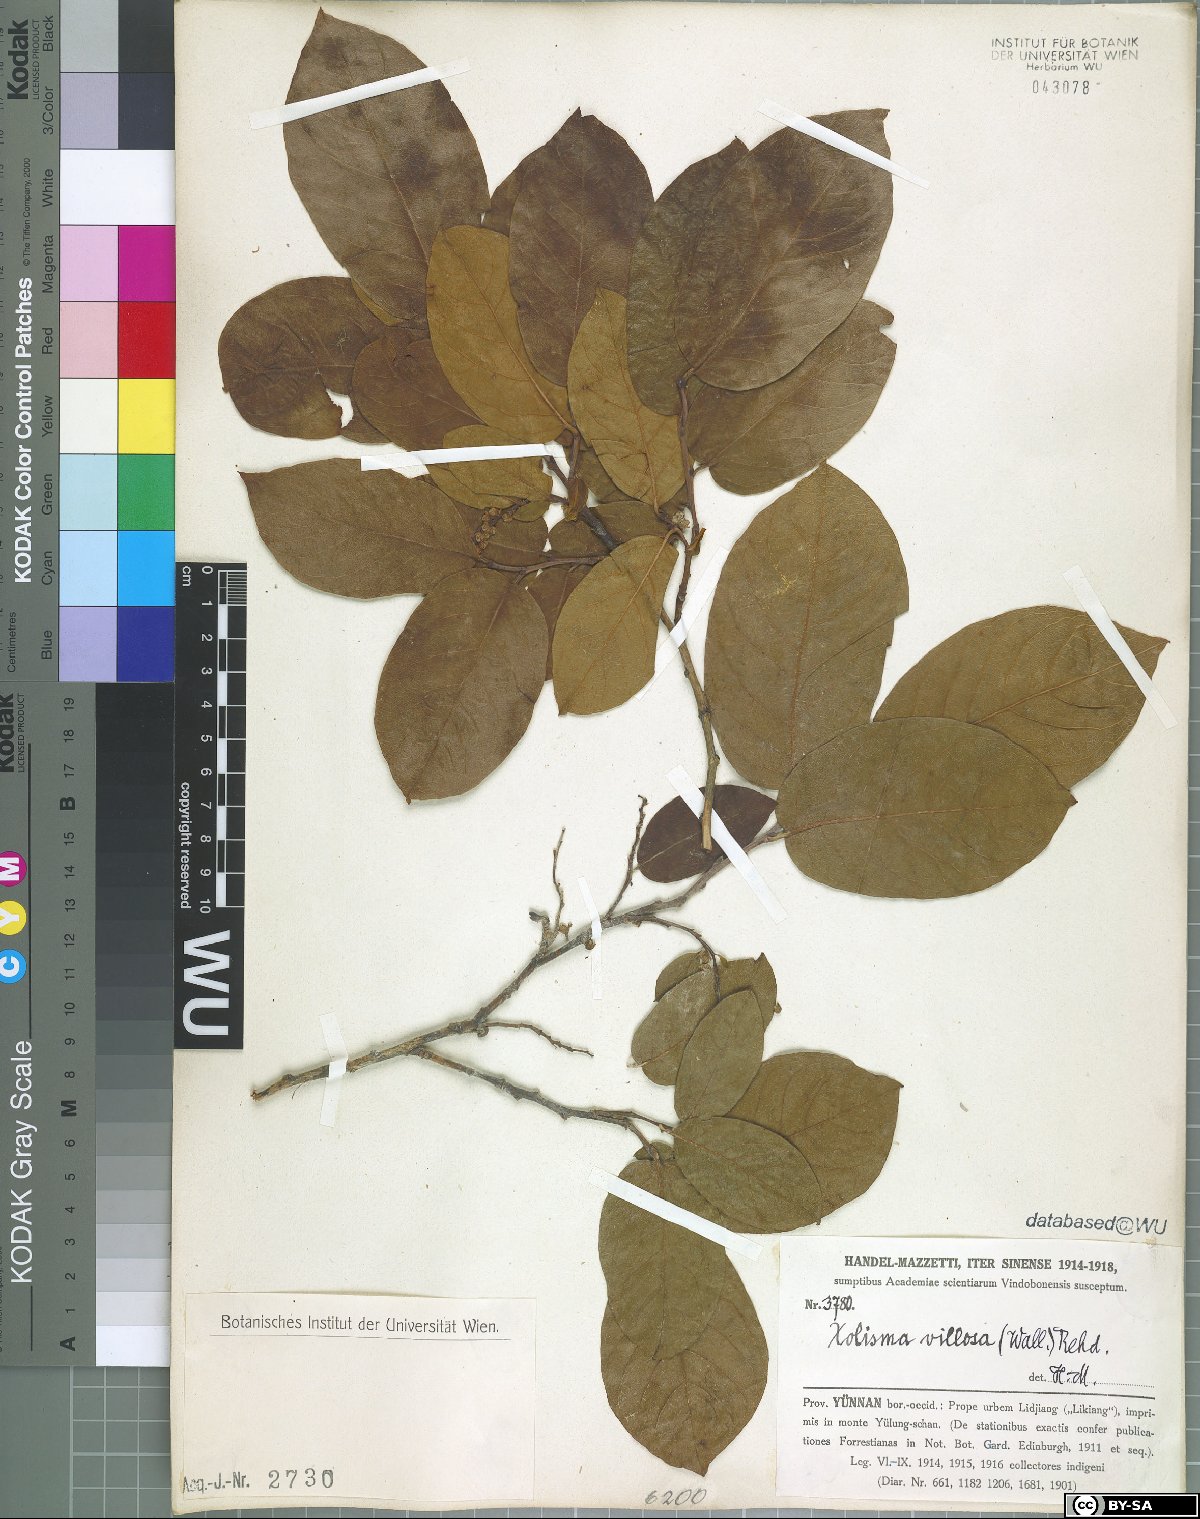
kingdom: Plantae
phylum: Tracheophyta
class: Magnoliopsida
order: Ericales
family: Ericaceae
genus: Lyonia
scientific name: Lyonia villosa
